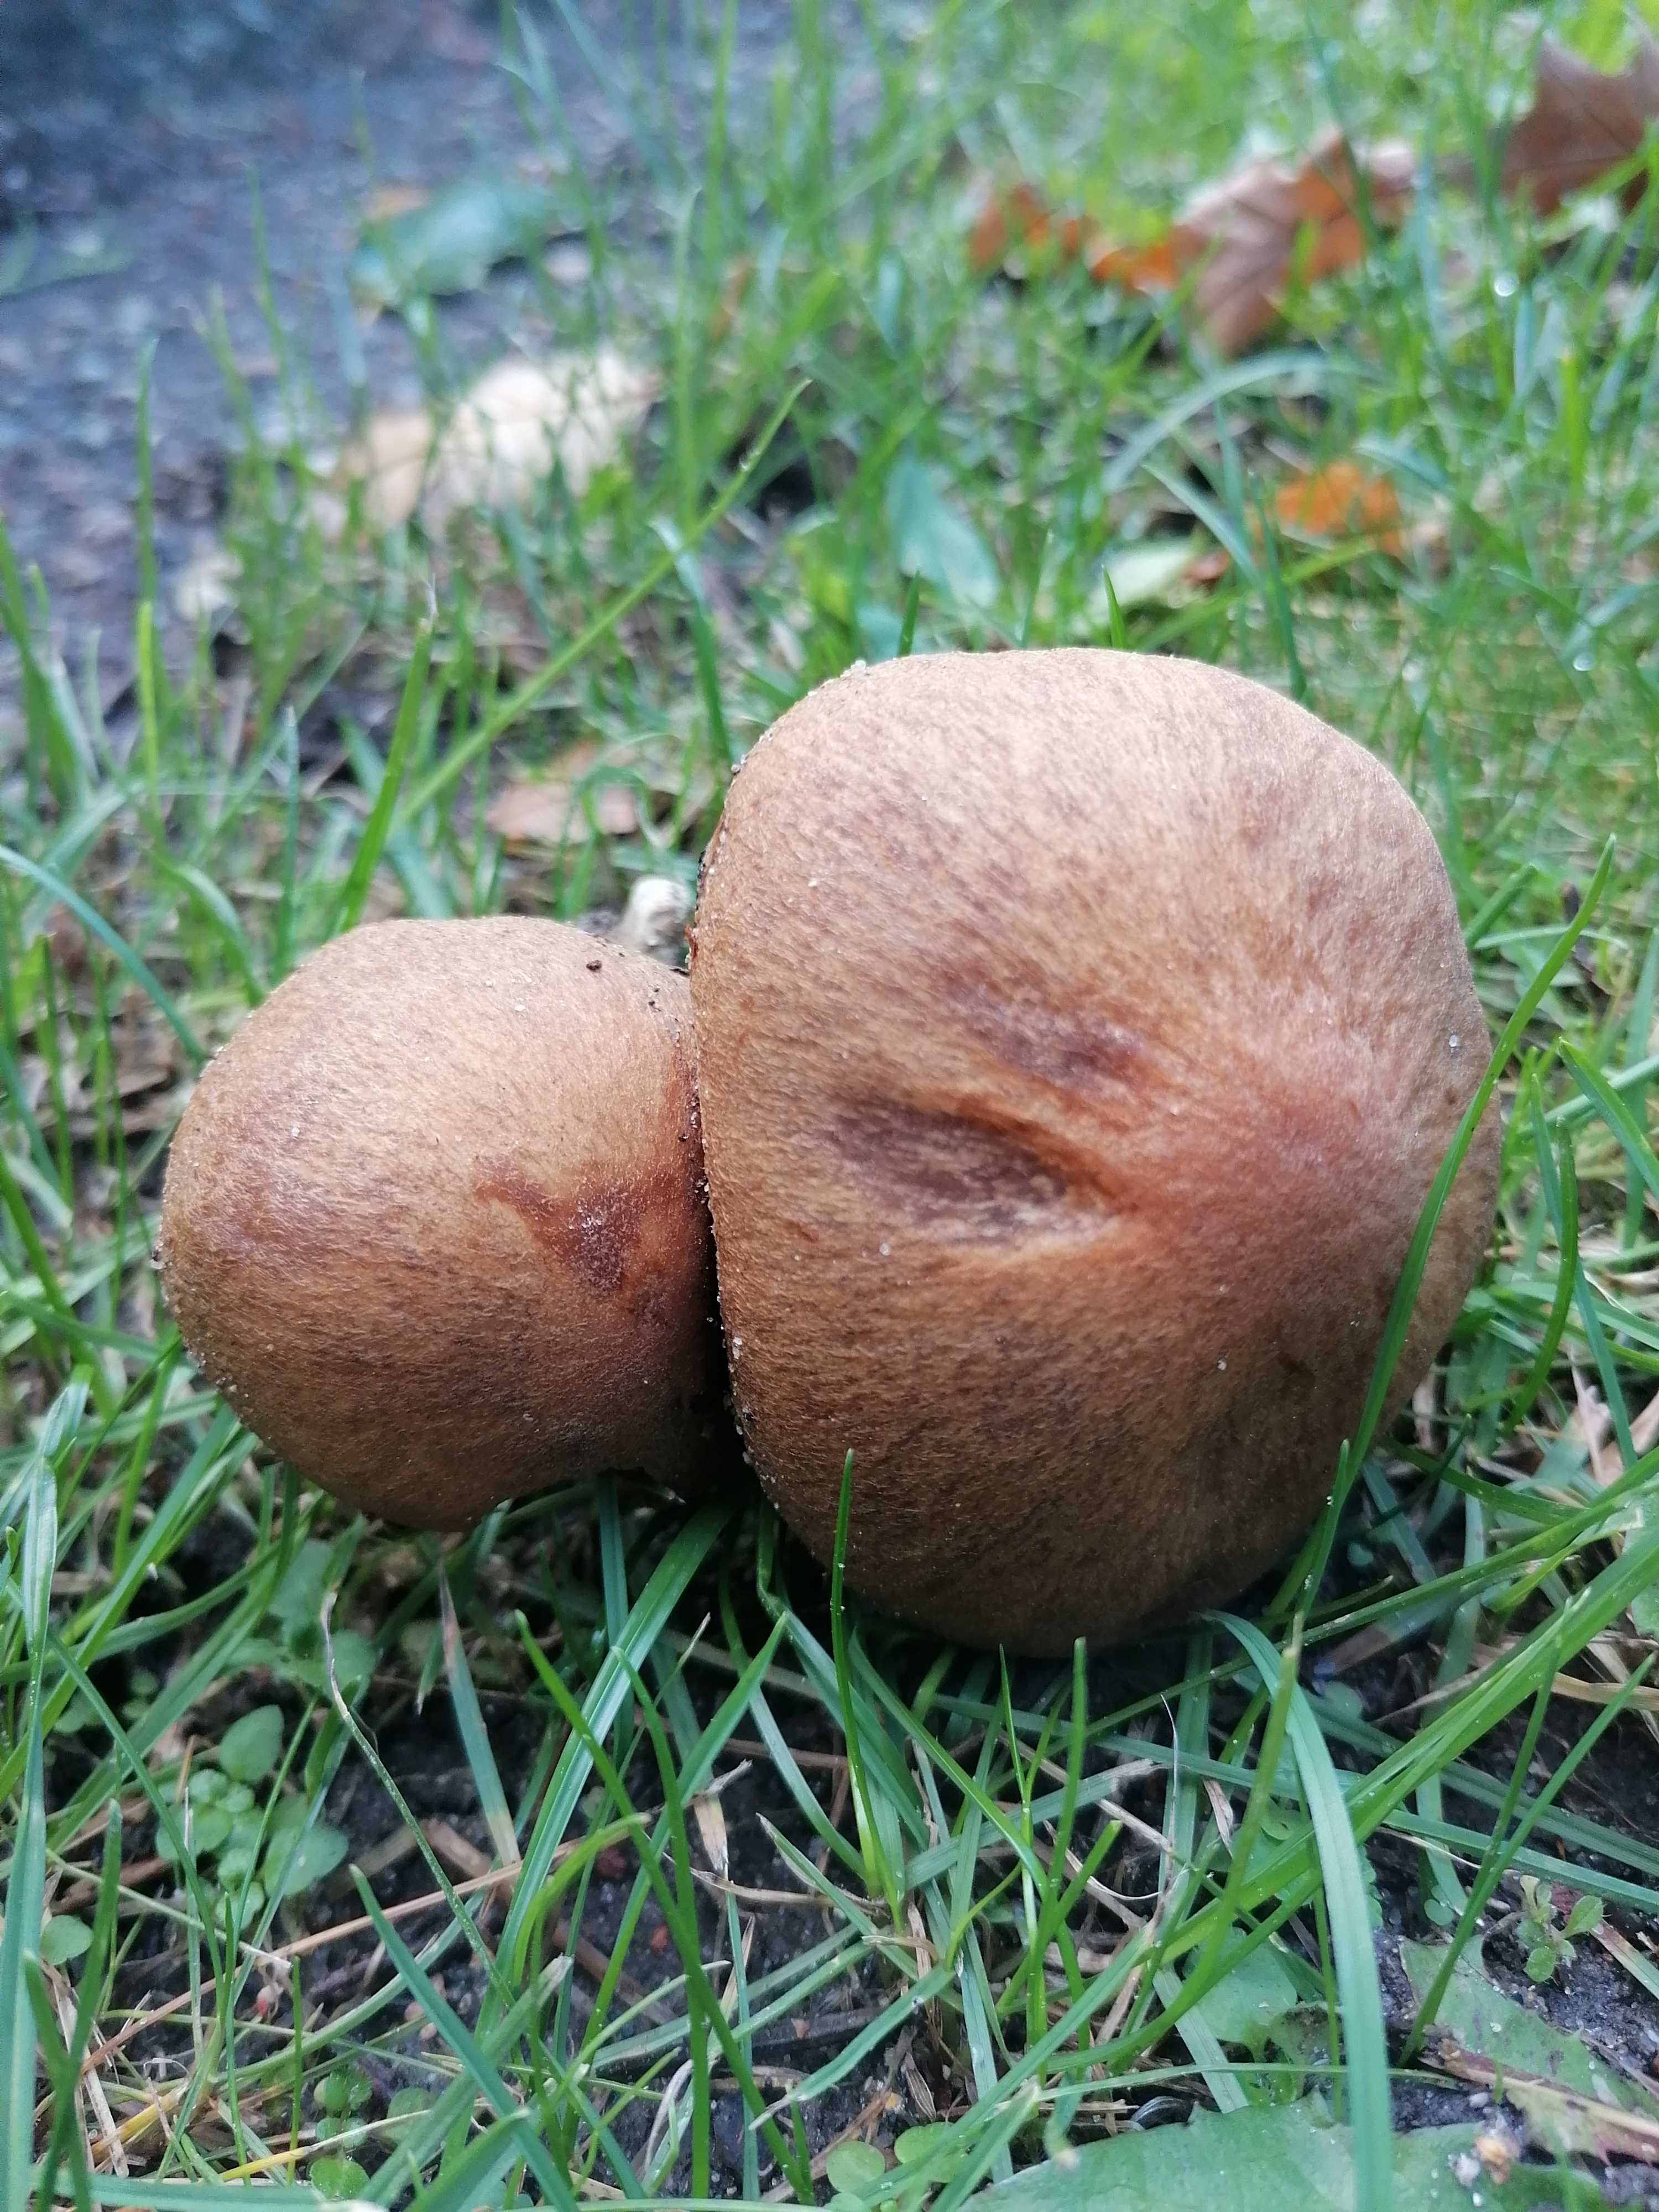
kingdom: Fungi
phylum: Basidiomycota
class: Agaricomycetes
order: Agaricales
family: Psathyrellaceae
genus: Lacrymaria
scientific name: Lacrymaria lacrymabunda
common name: grædende mørkhat
